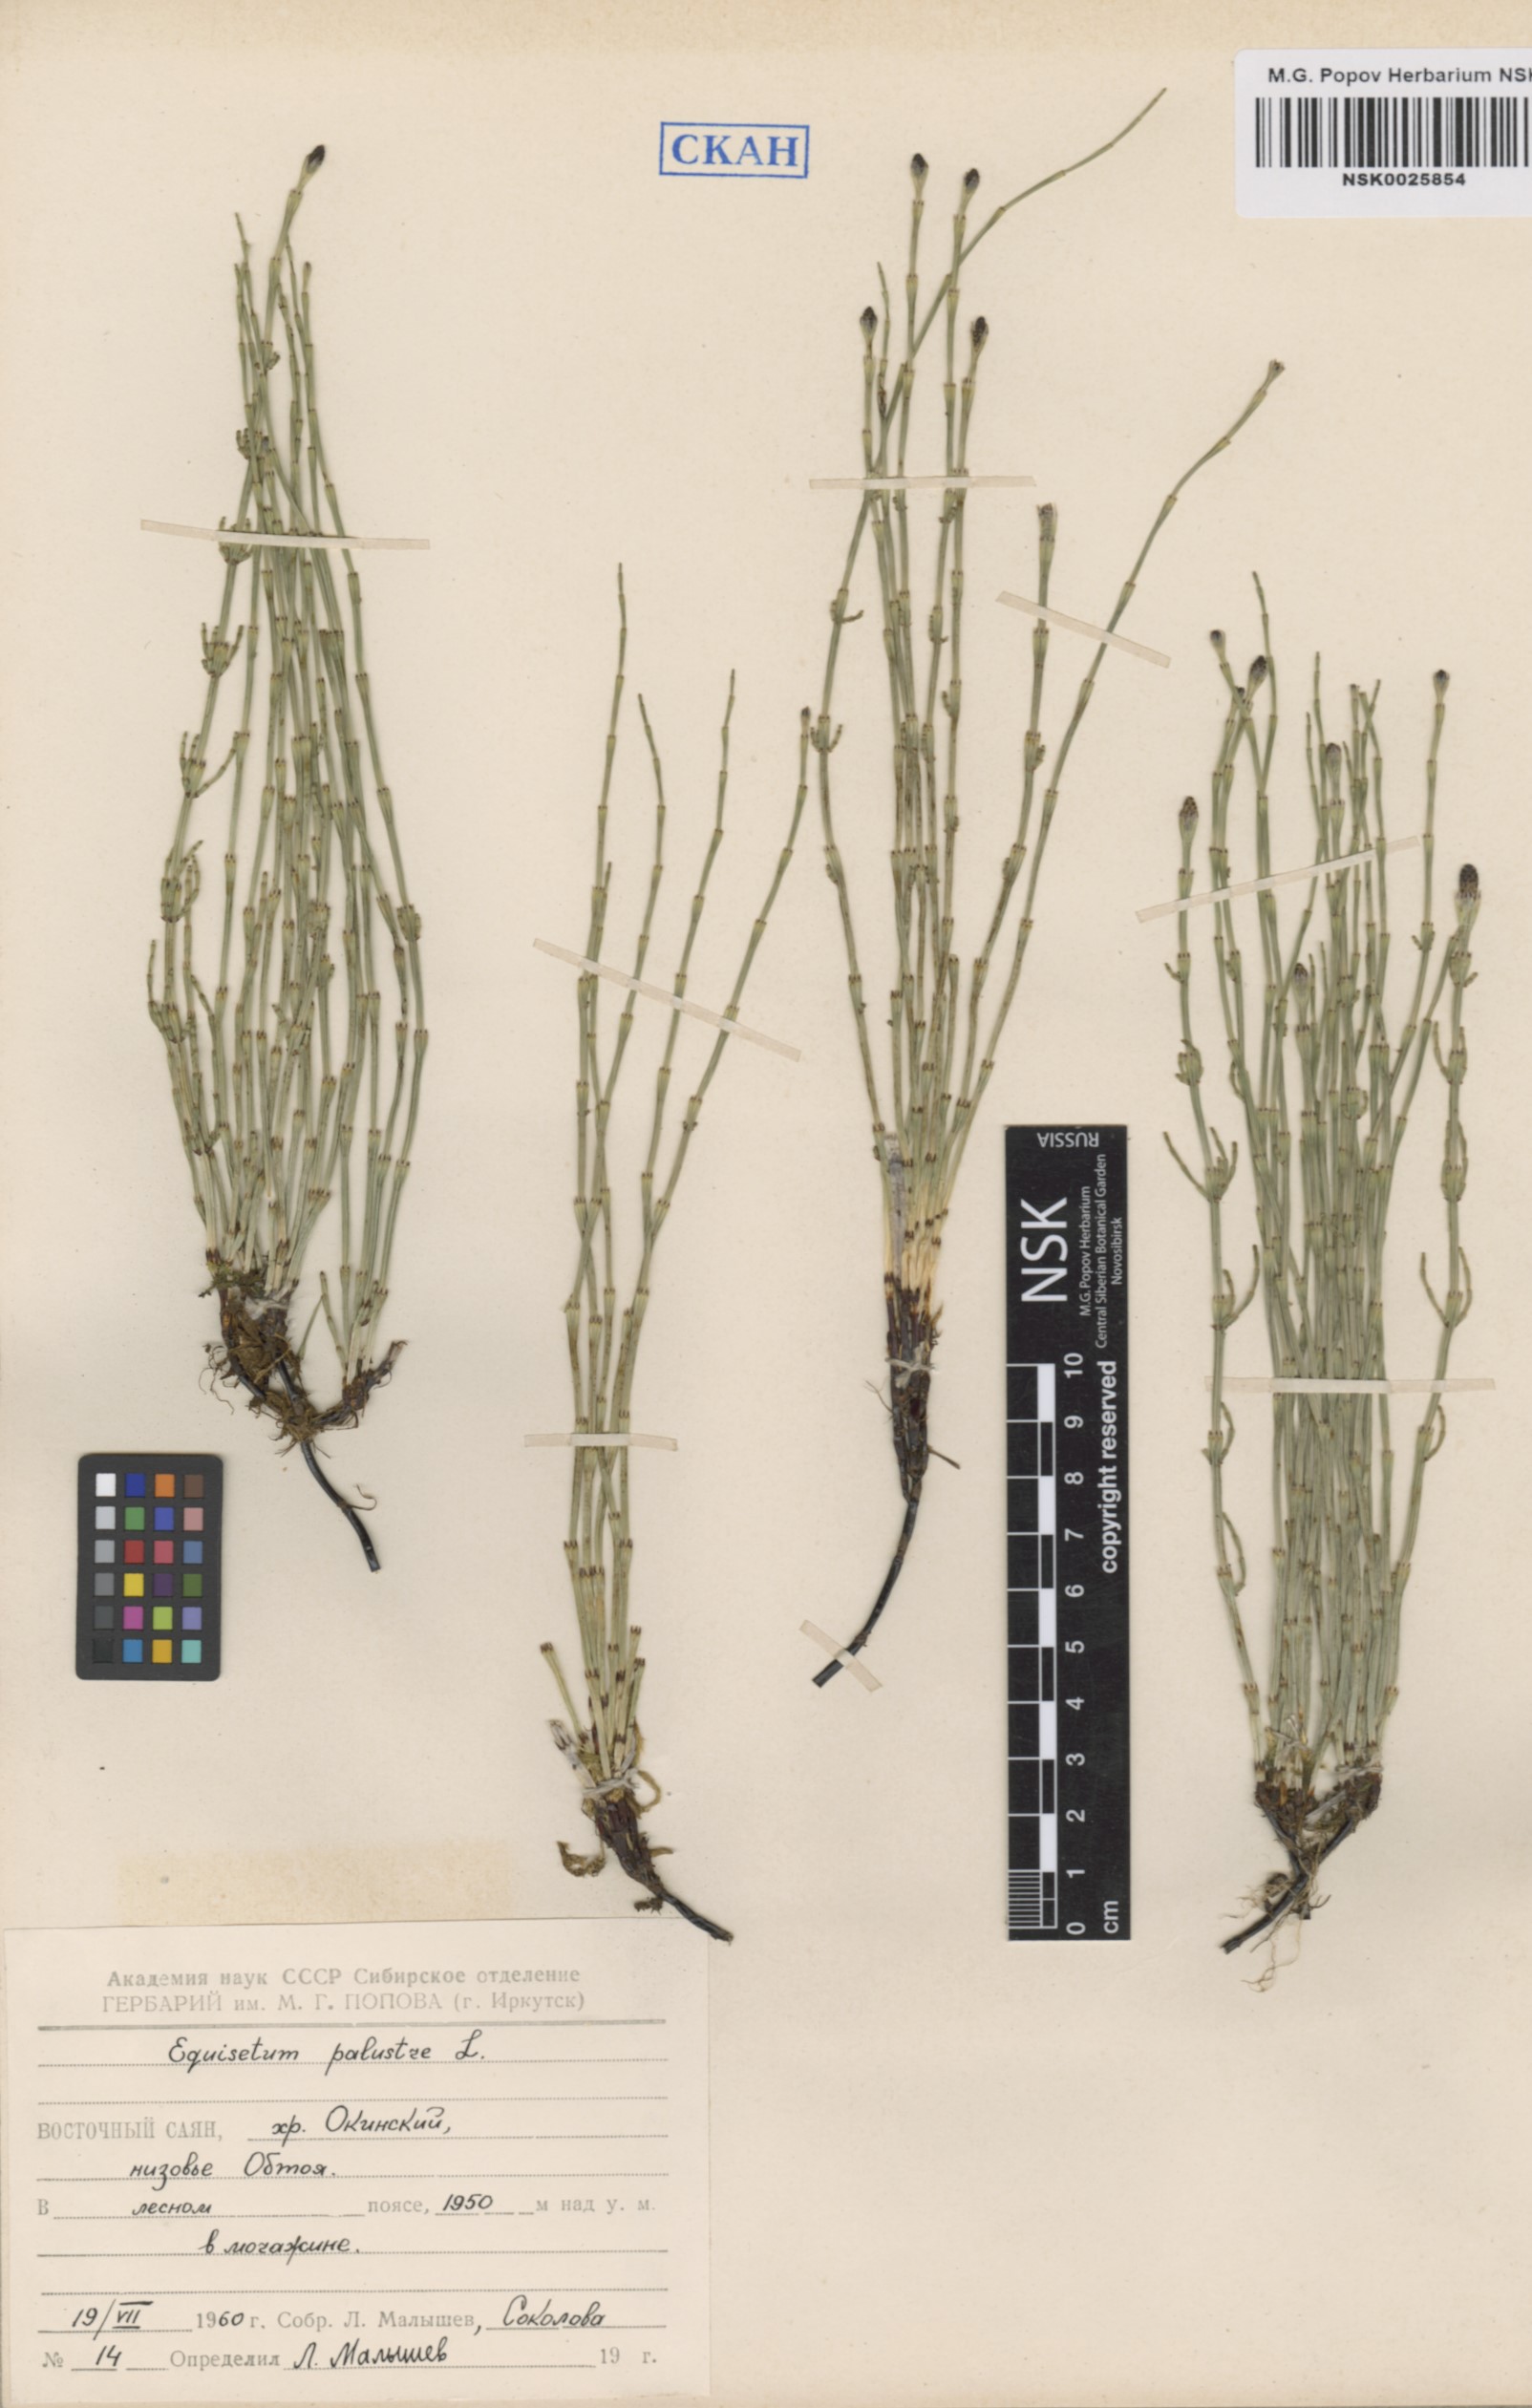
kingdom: Plantae
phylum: Tracheophyta
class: Polypodiopsida
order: Equisetales
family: Equisetaceae
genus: Equisetum
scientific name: Equisetum palustre
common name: Marsh horsetail
